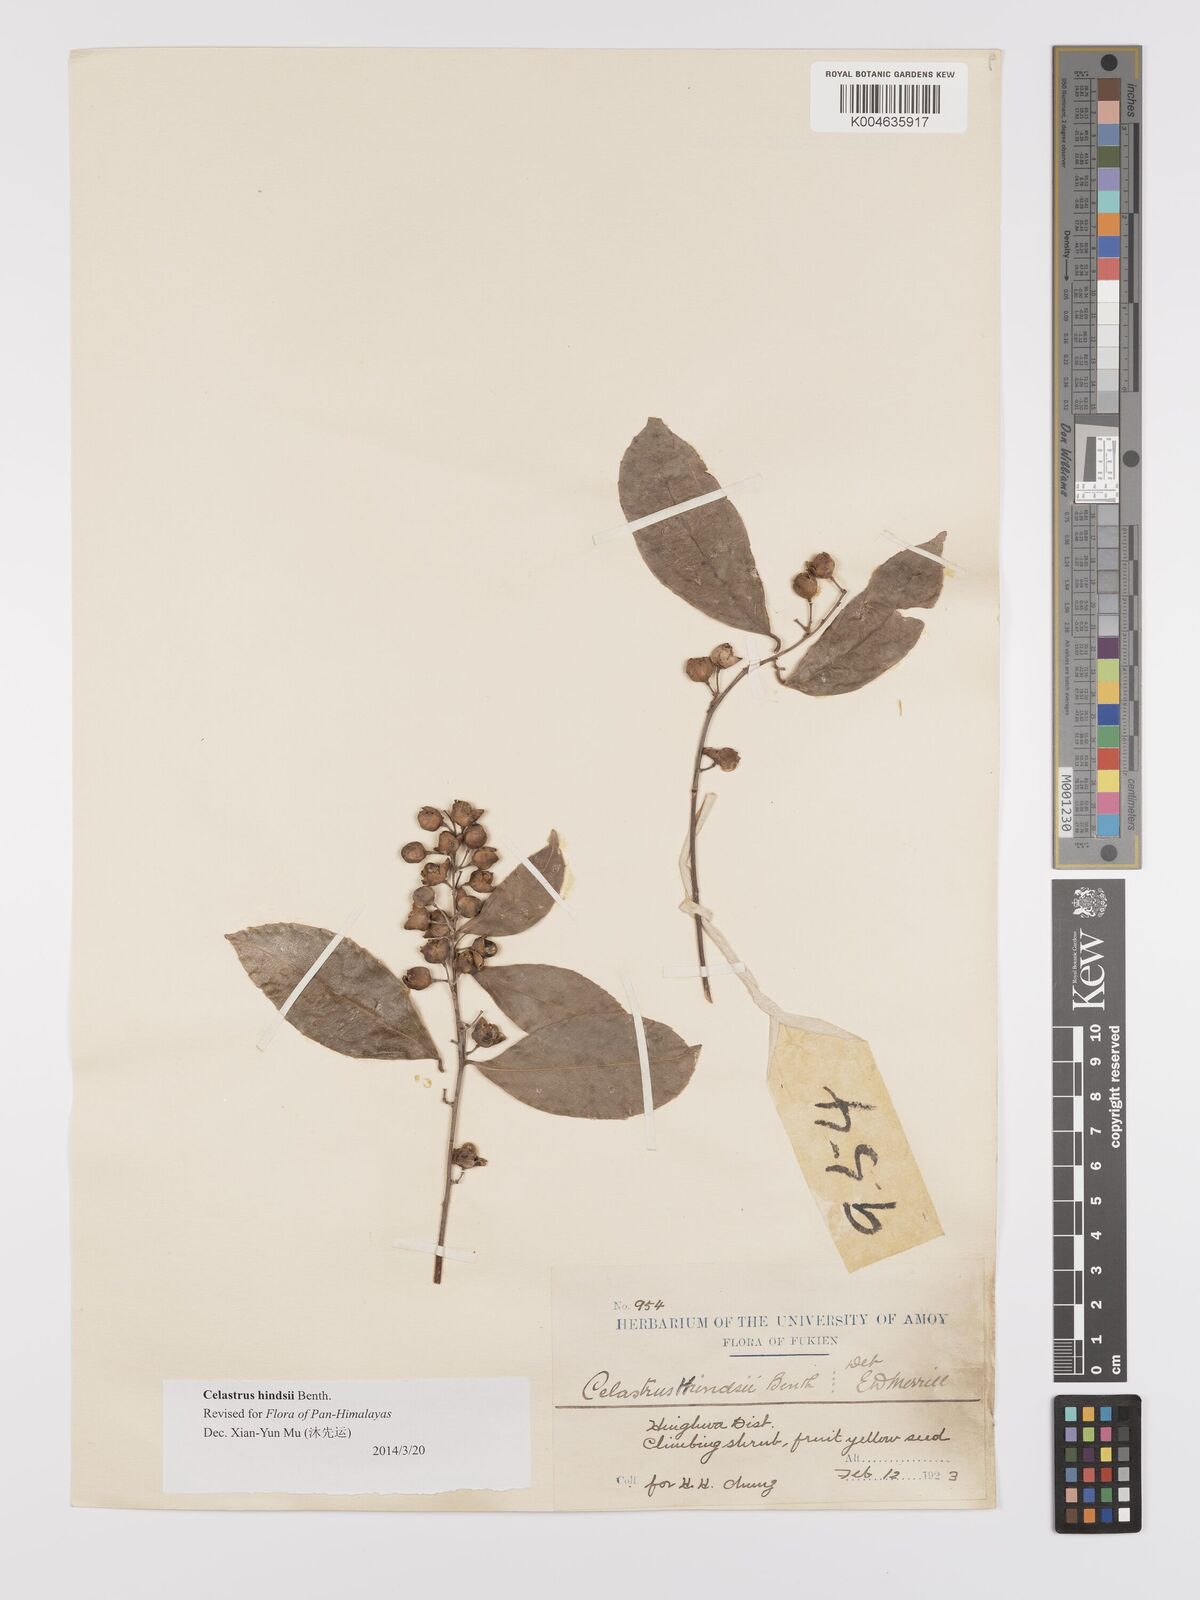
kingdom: Plantae
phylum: Tracheophyta
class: Magnoliopsida
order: Celastrales
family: Celastraceae
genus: Celastrus
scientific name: Celastrus hindsii
